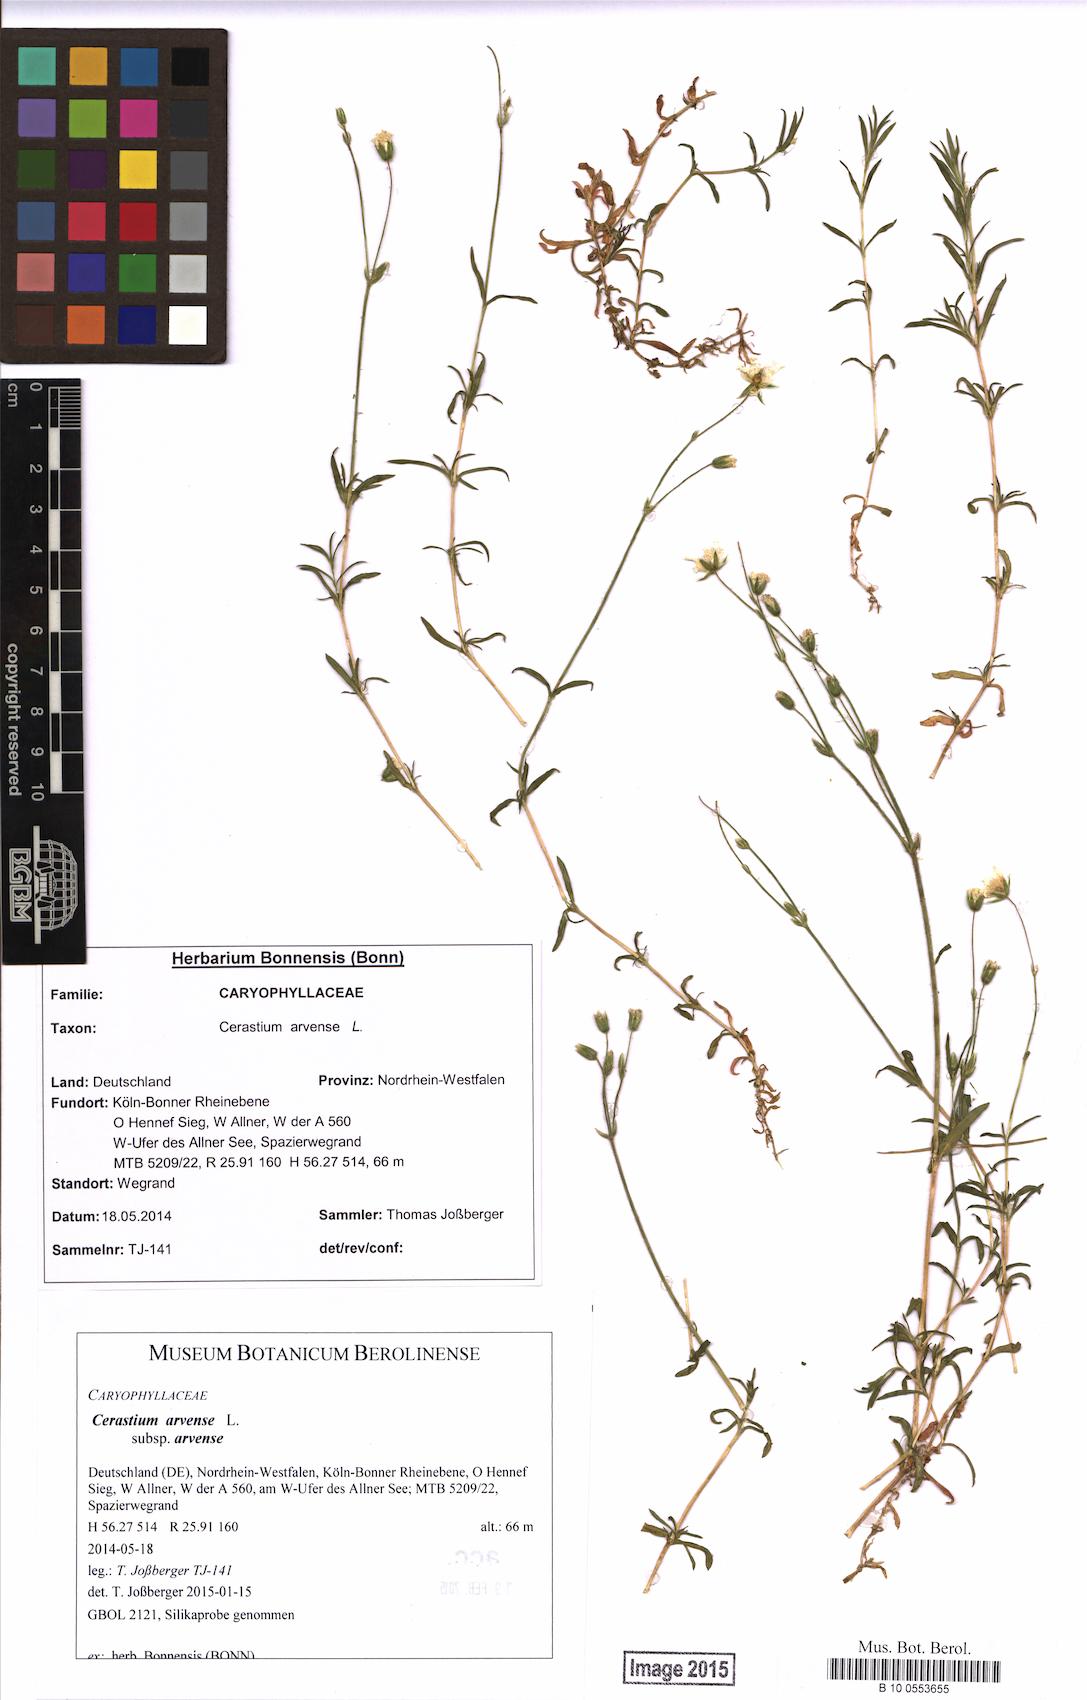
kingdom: Plantae
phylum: Tracheophyta
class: Magnoliopsida
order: Caryophyllales
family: Caryophyllaceae
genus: Cerastium
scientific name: Cerastium arvense
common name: Field mouse-ear
